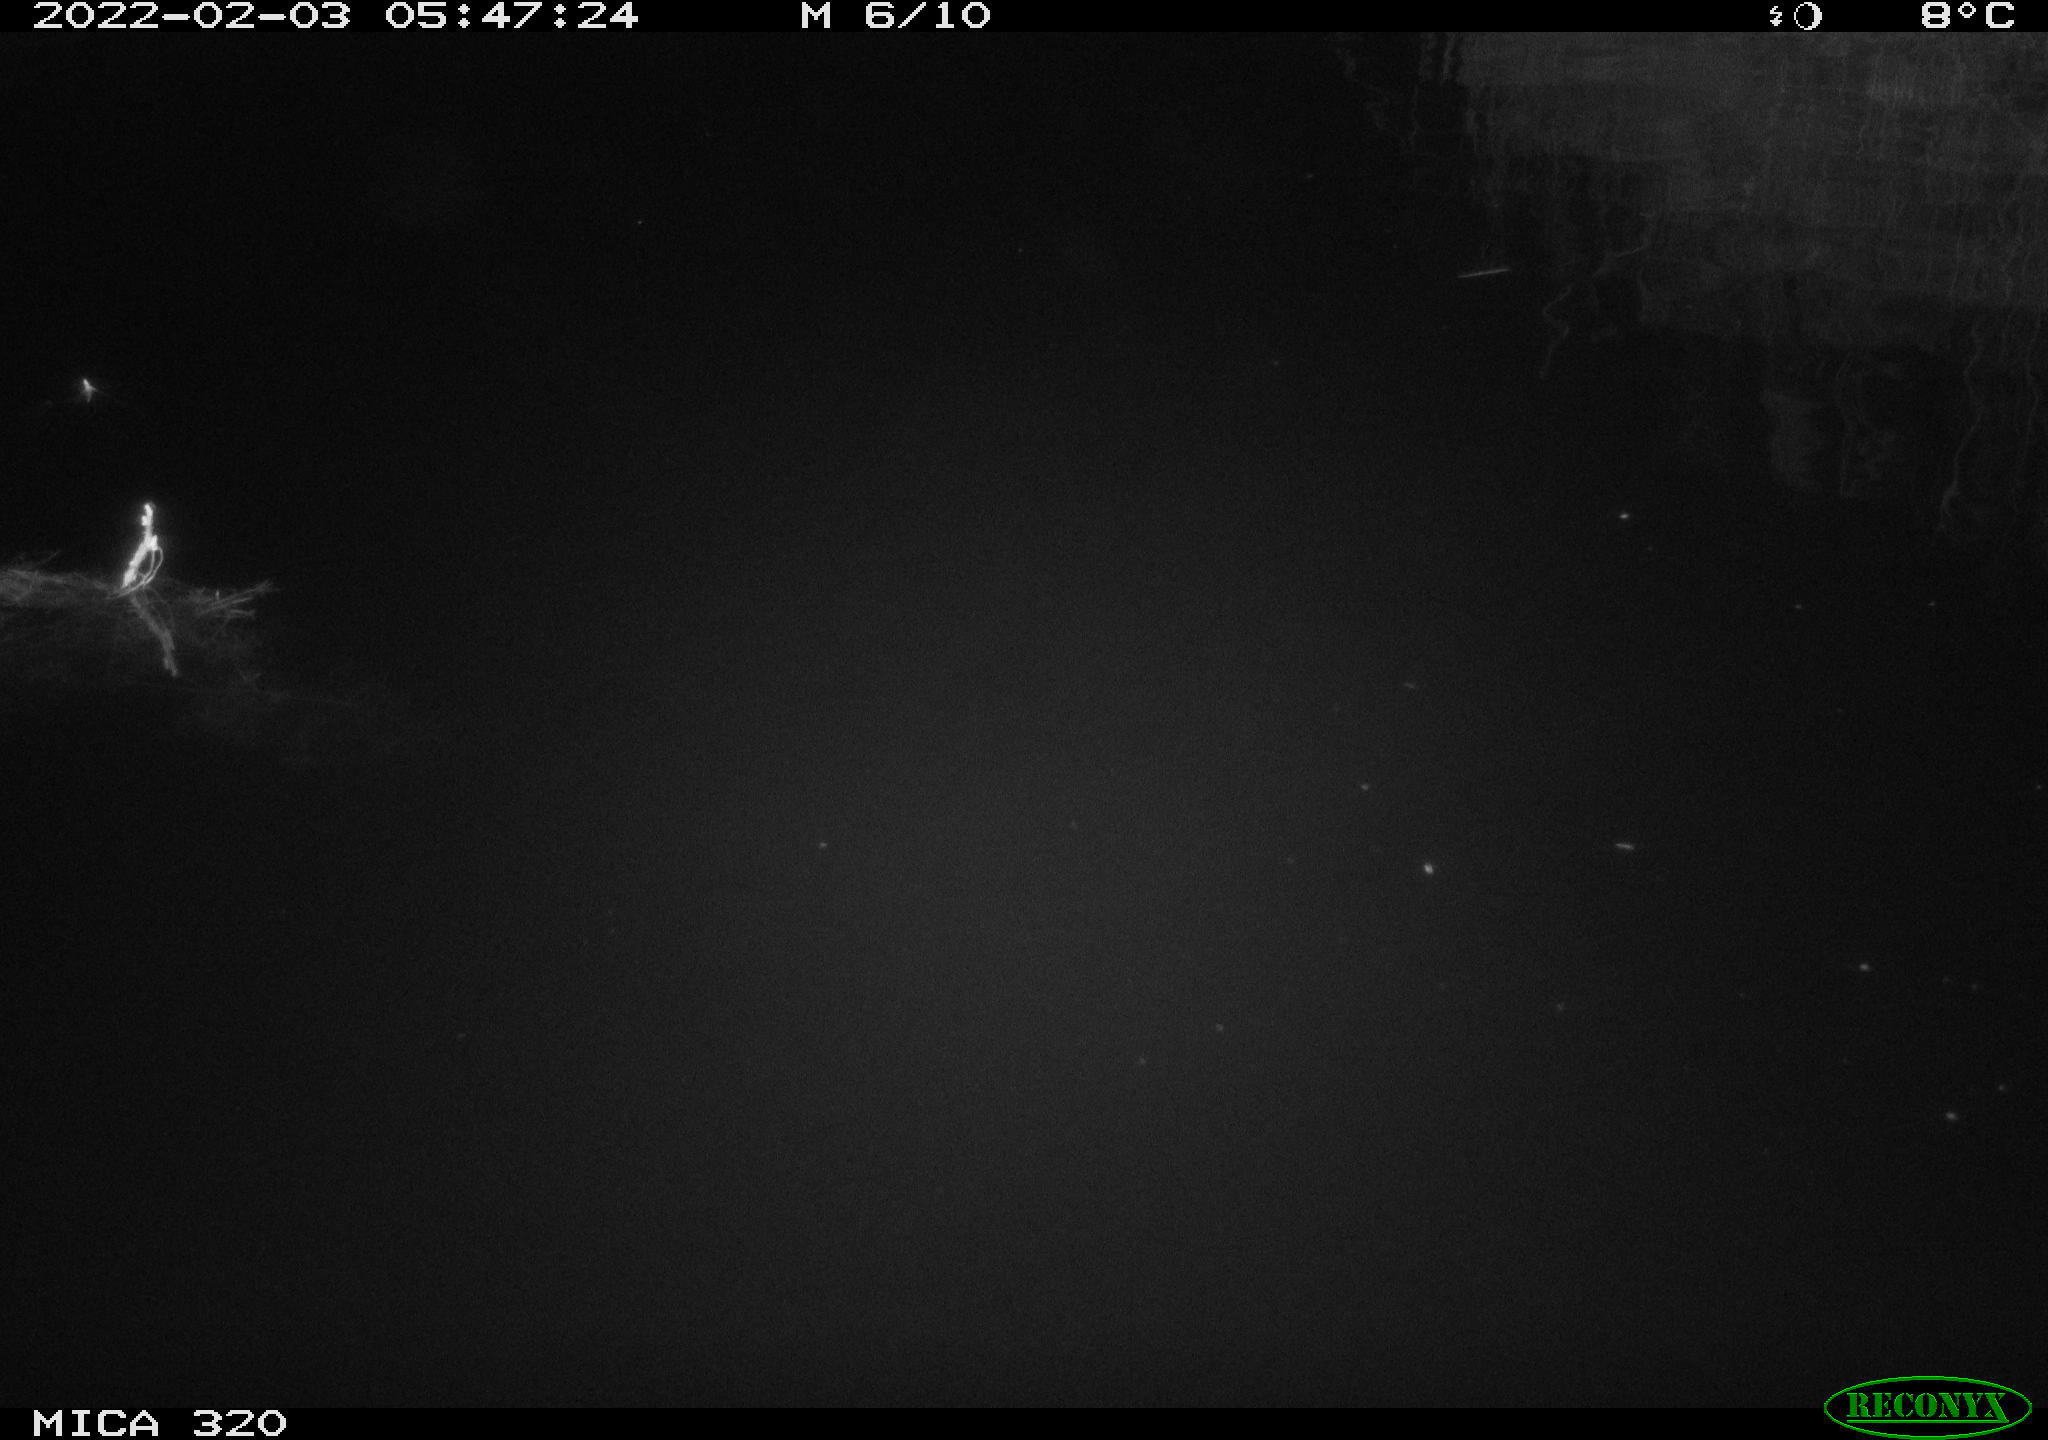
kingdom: Animalia
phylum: Chordata
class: Aves
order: Anseriformes
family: Anatidae
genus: Anas
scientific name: Anas
